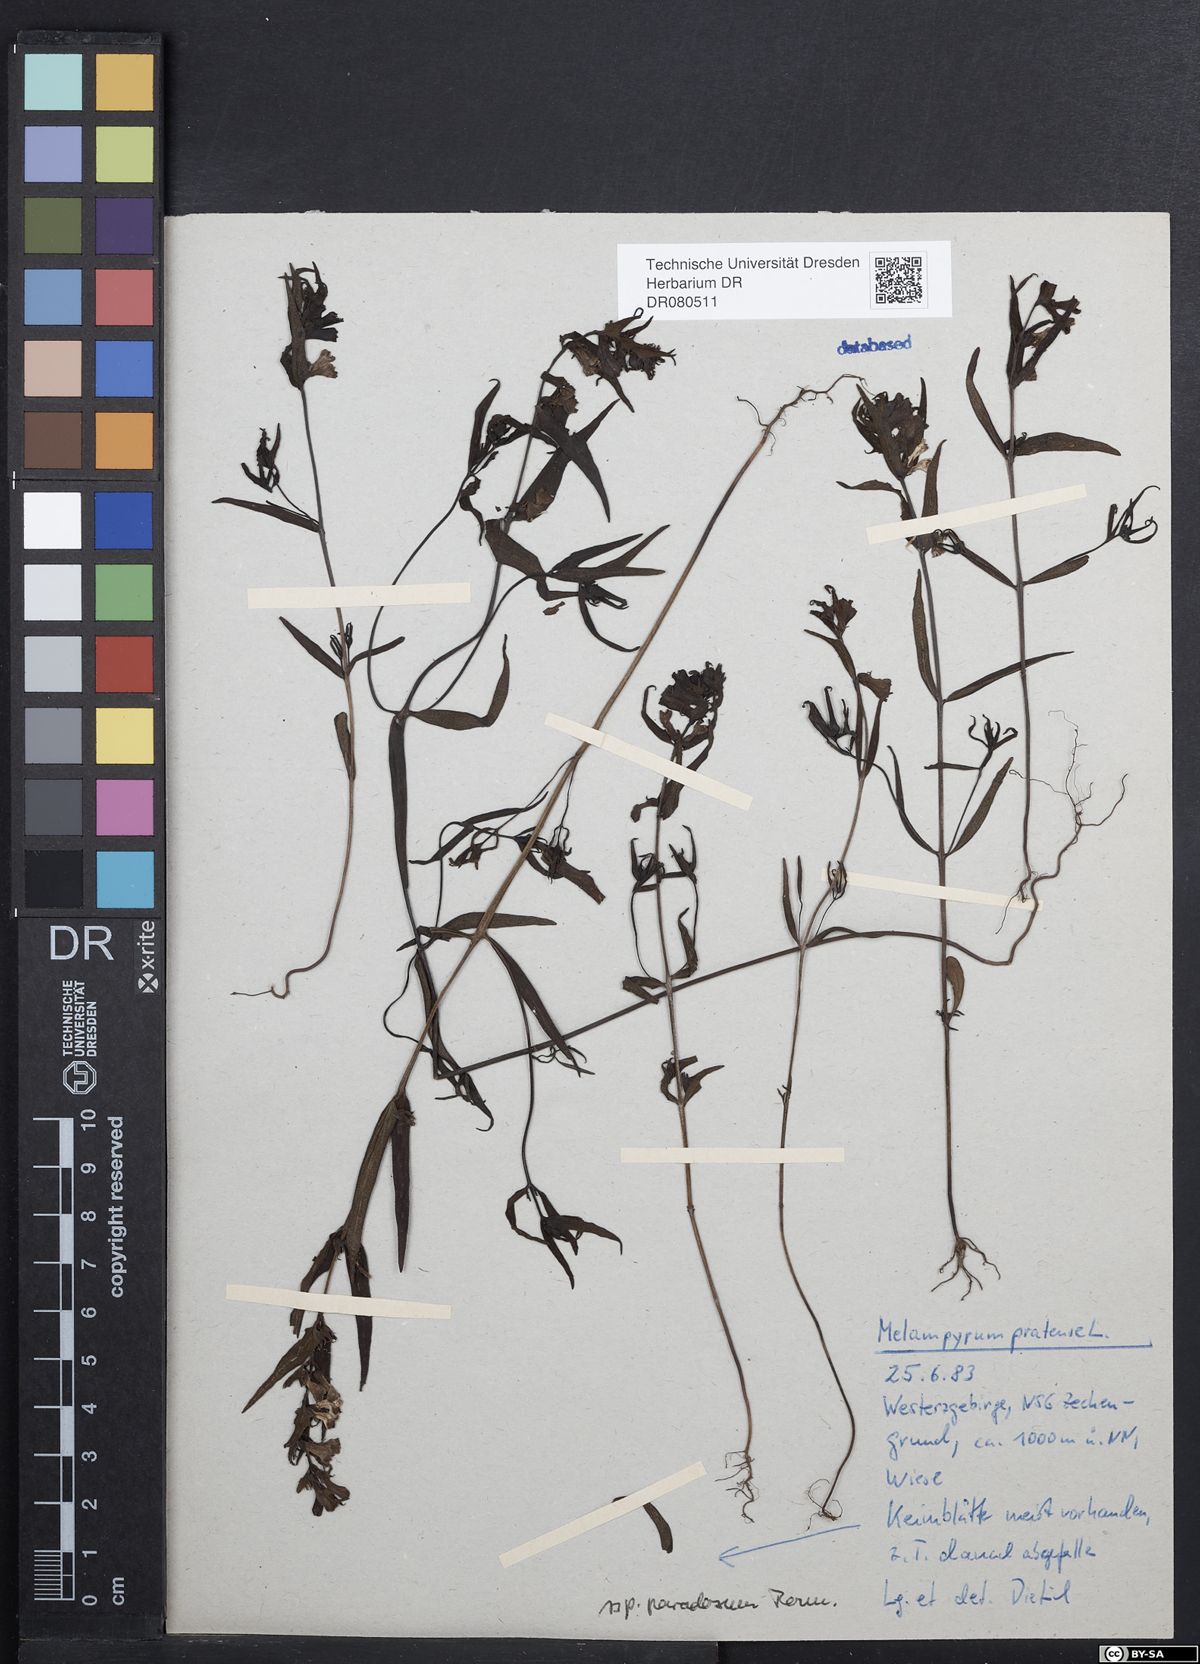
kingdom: Plantae
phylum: Tracheophyta
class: Magnoliopsida
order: Lamiales
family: Orobanchaceae
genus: Melampyrum
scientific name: Melampyrum pratense
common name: Common cow-wheat
